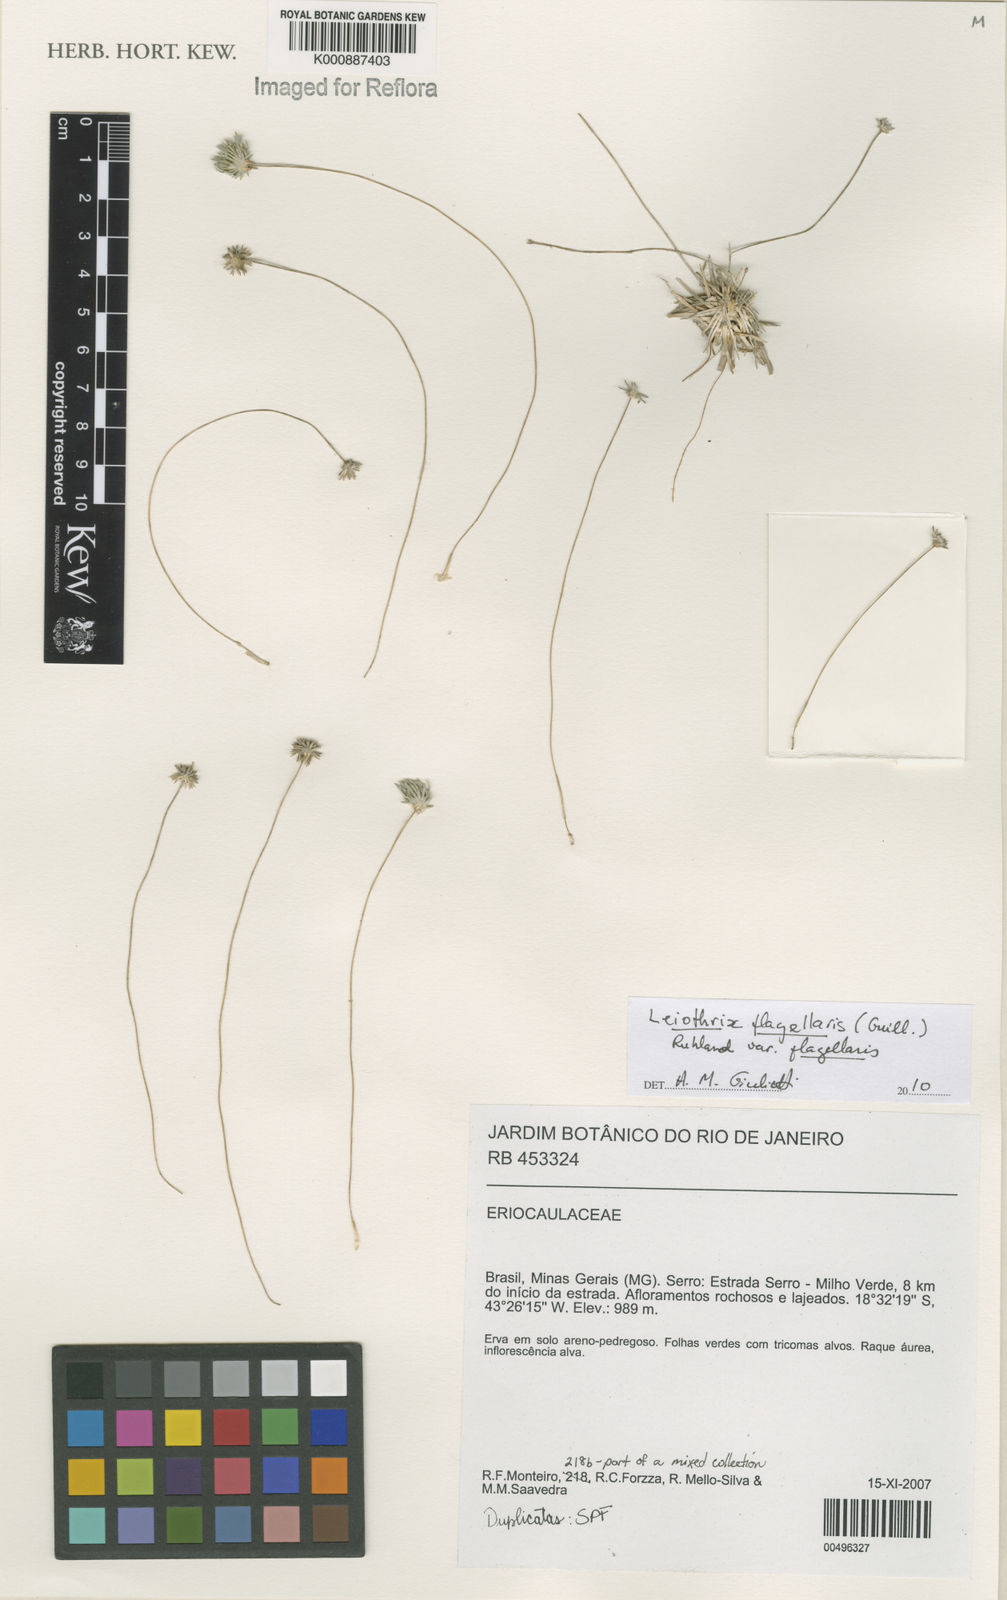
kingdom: Plantae
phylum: Tracheophyta
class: Liliopsida
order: Poales
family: Eriocaulaceae
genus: Leiothrix
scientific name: Leiothrix flagellaris
